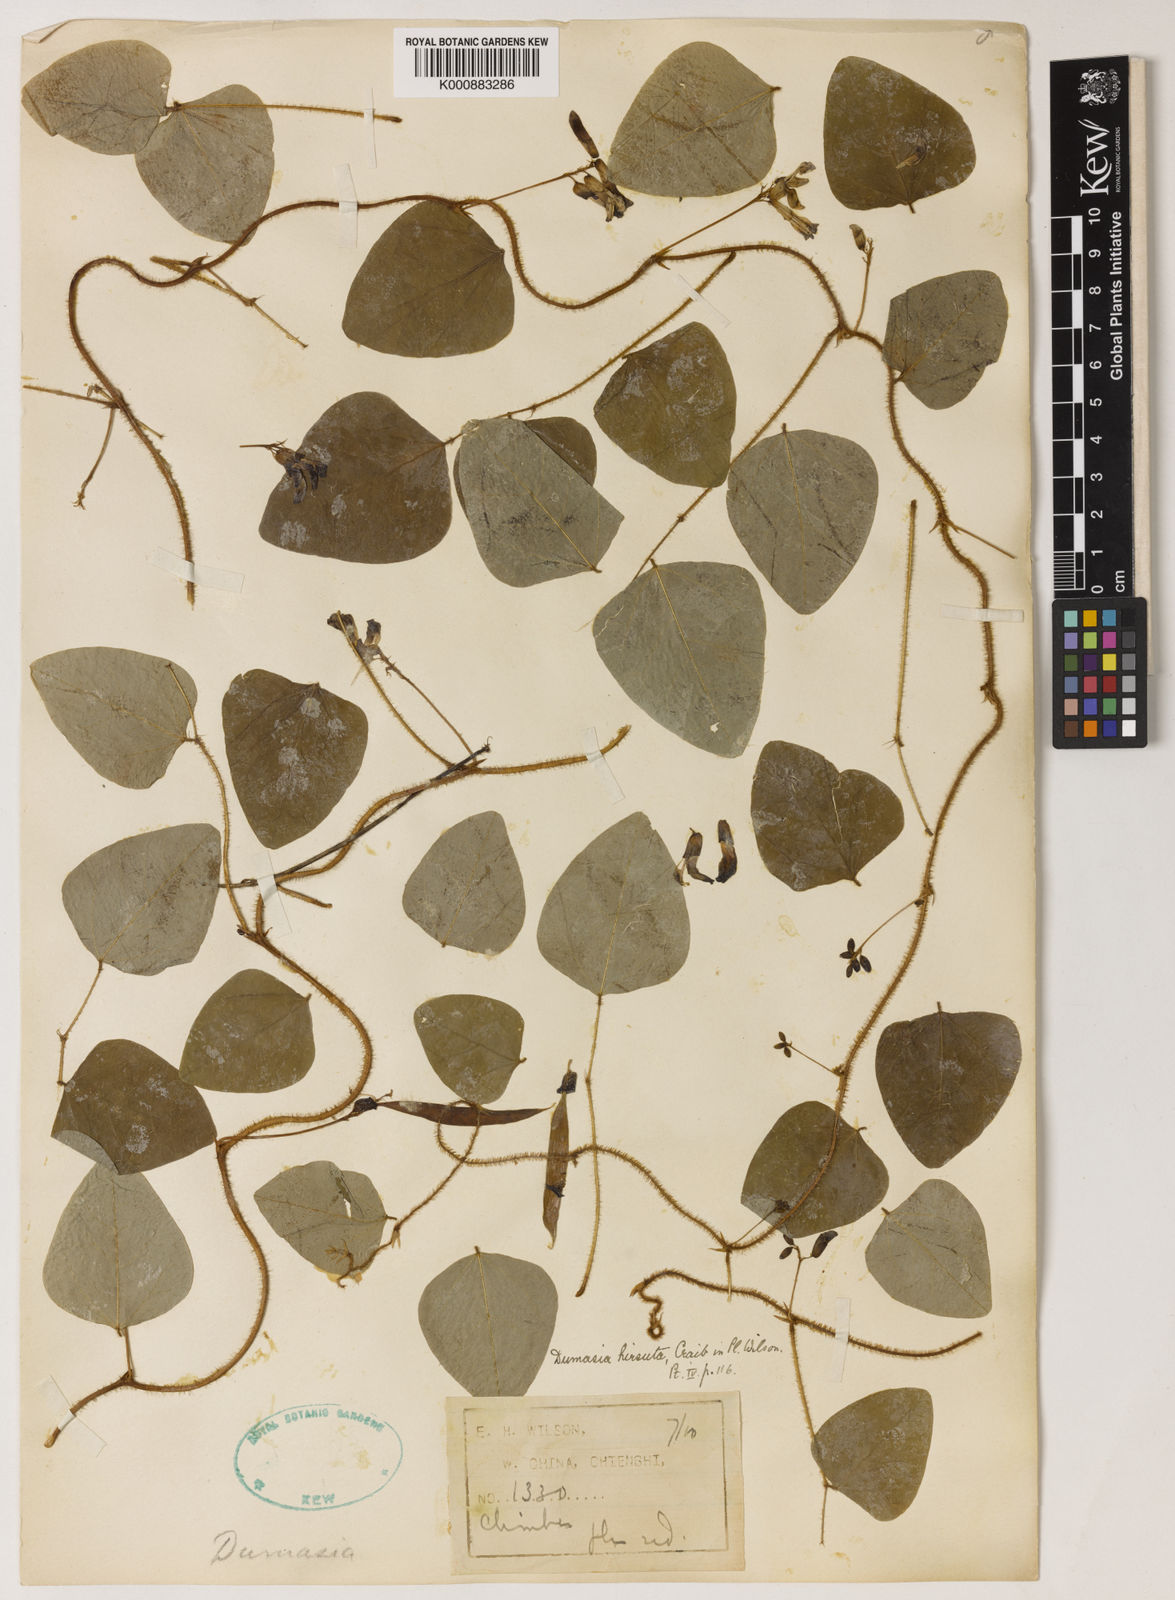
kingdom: Plantae
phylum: Tracheophyta
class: Magnoliopsida
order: Fabales
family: Fabaceae
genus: Dumasia
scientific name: Dumasia hirsuta
